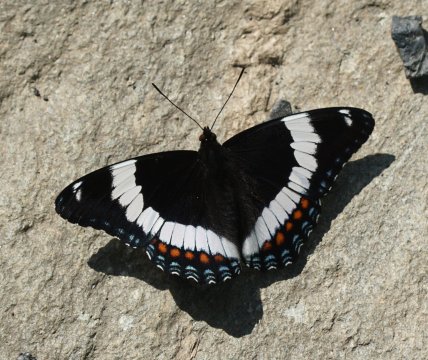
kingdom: Animalia
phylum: Arthropoda
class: Insecta
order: Lepidoptera
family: Nymphalidae
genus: Limenitis
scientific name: Limenitis arthemis
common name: Red-spotted Admiral
